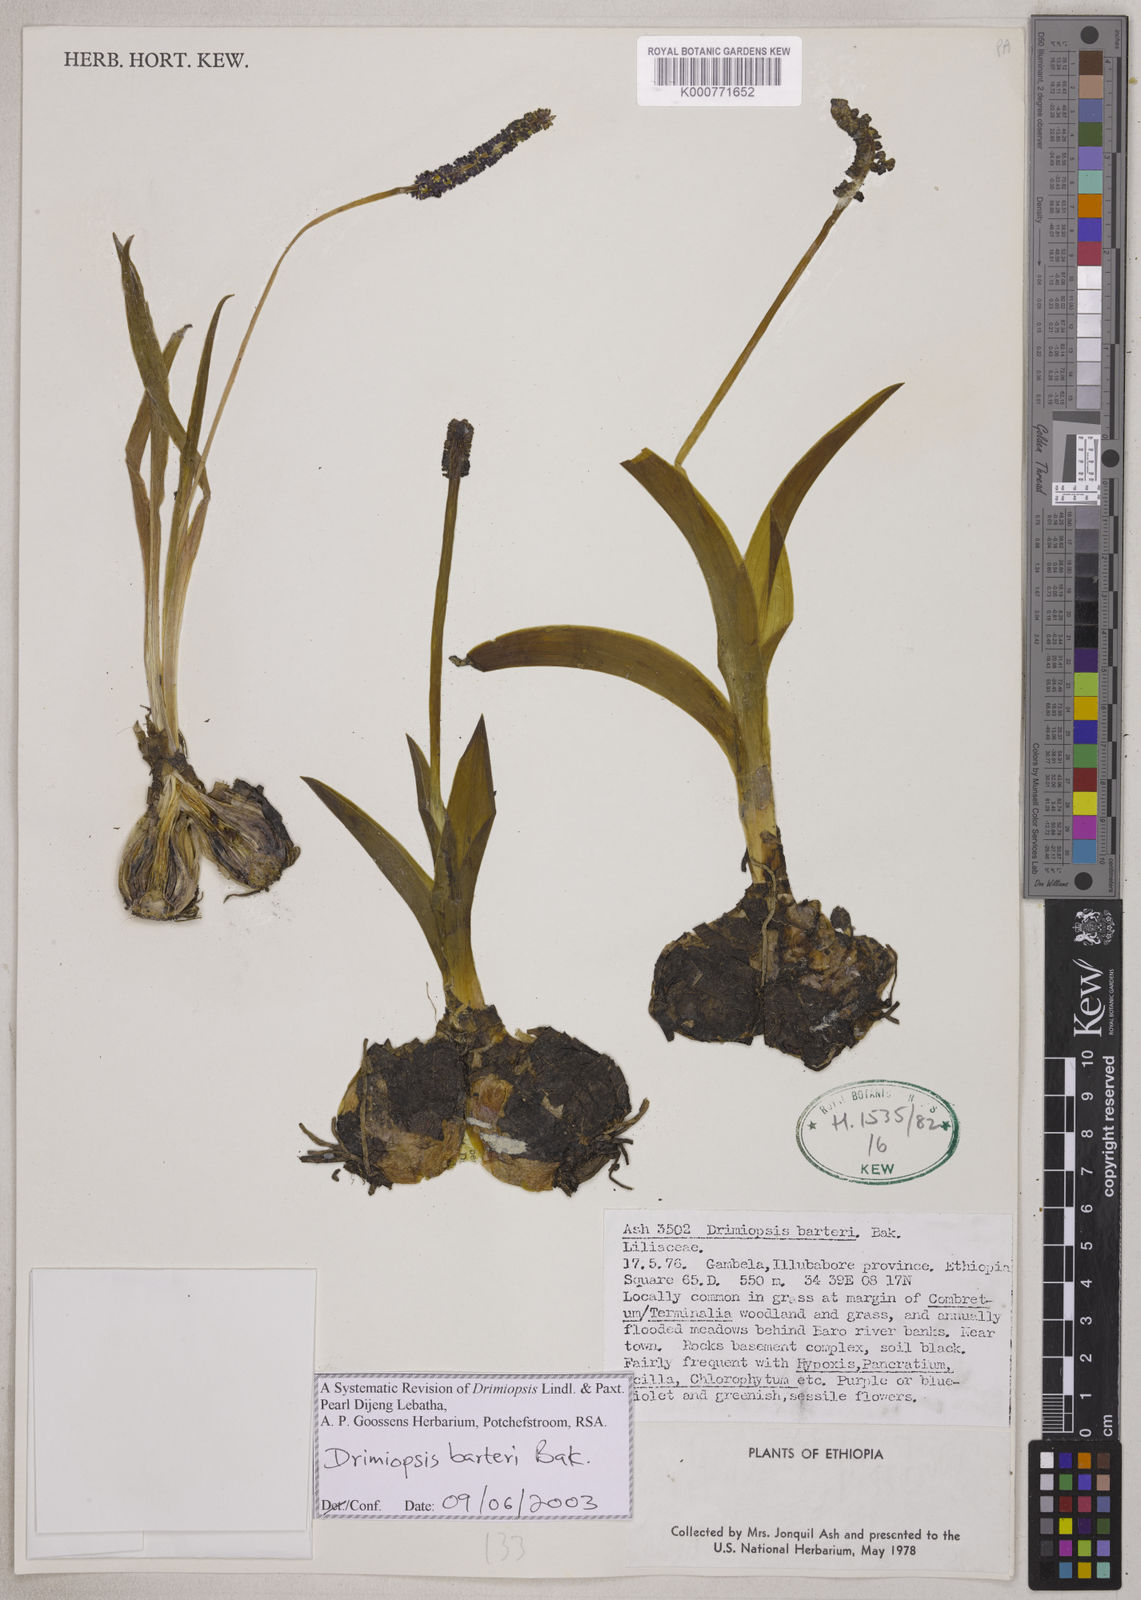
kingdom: Plantae
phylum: Tracheophyta
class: Liliopsida
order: Asparagales
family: Asparagaceae
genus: Drimiopsis
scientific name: Drimiopsis barteri
